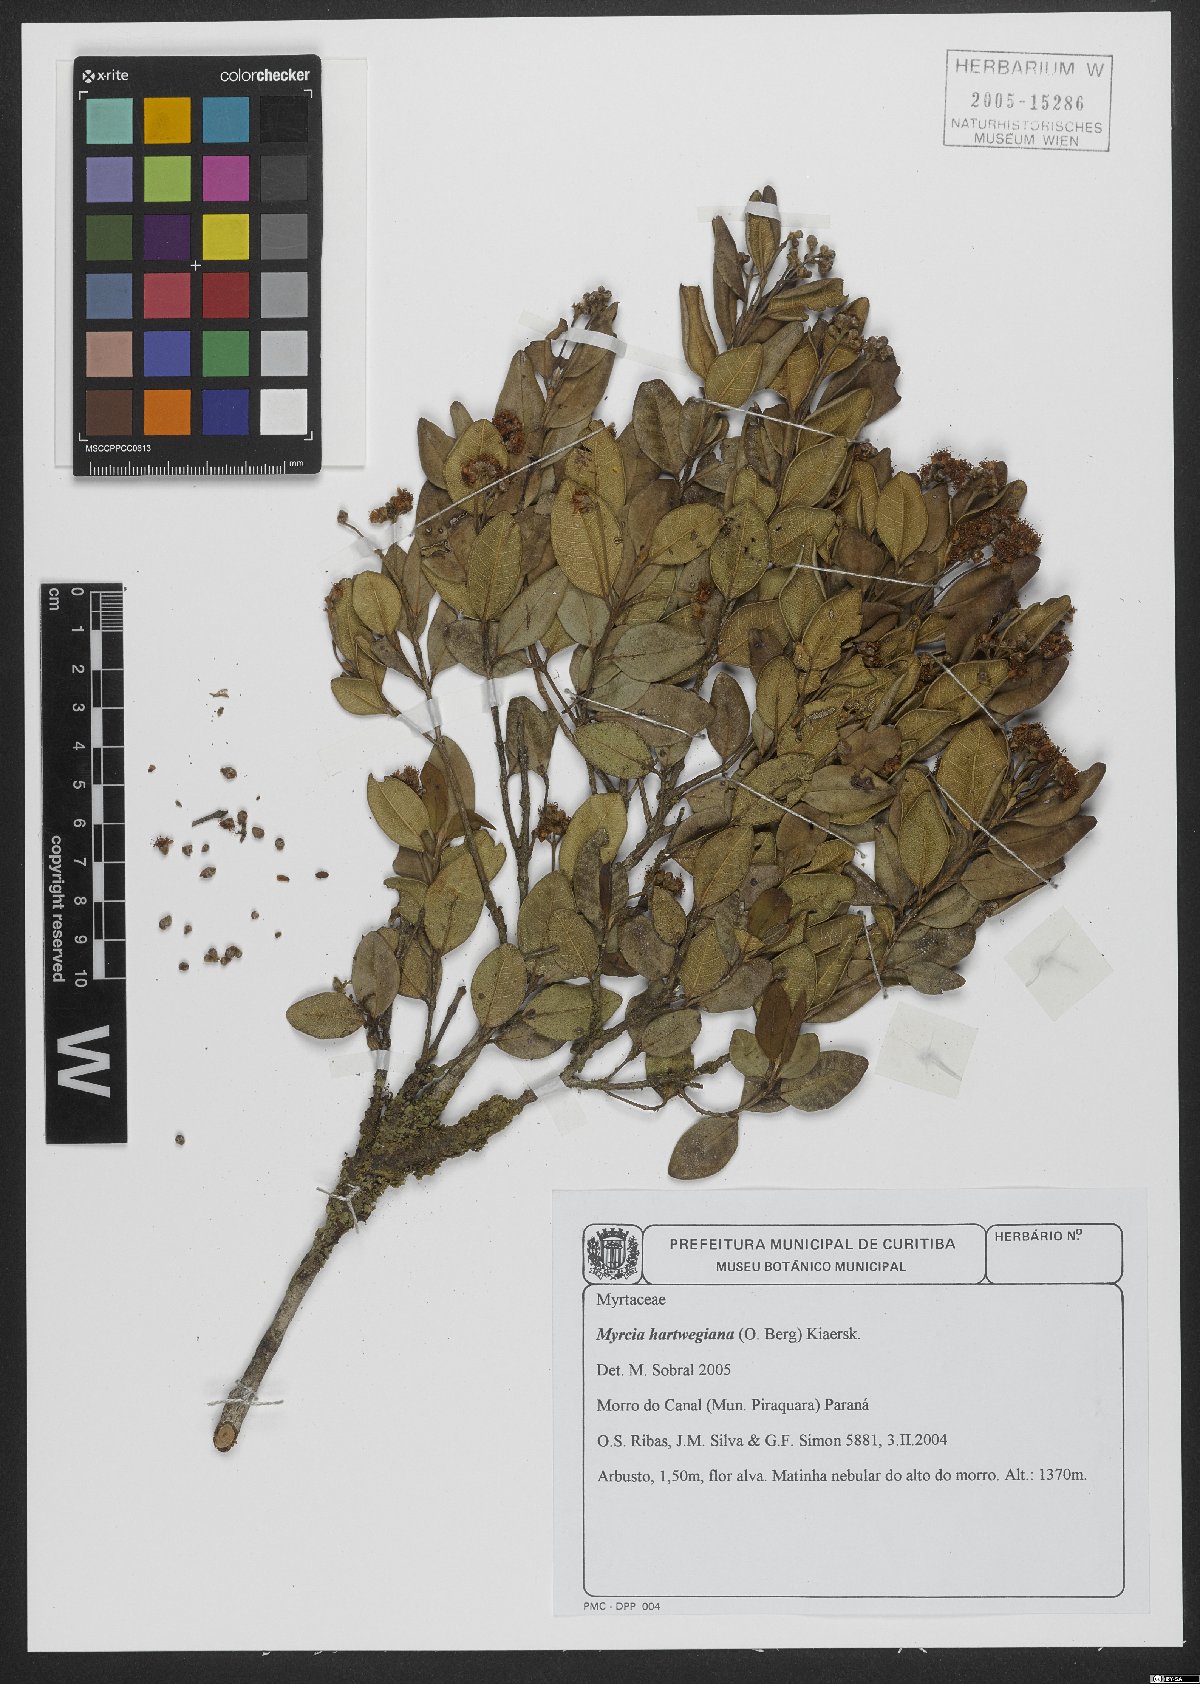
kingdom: Plantae
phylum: Tracheophyta
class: Magnoliopsida
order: Myrtales
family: Myrtaceae
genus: Myrcia
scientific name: Myrcia hartwegiana
